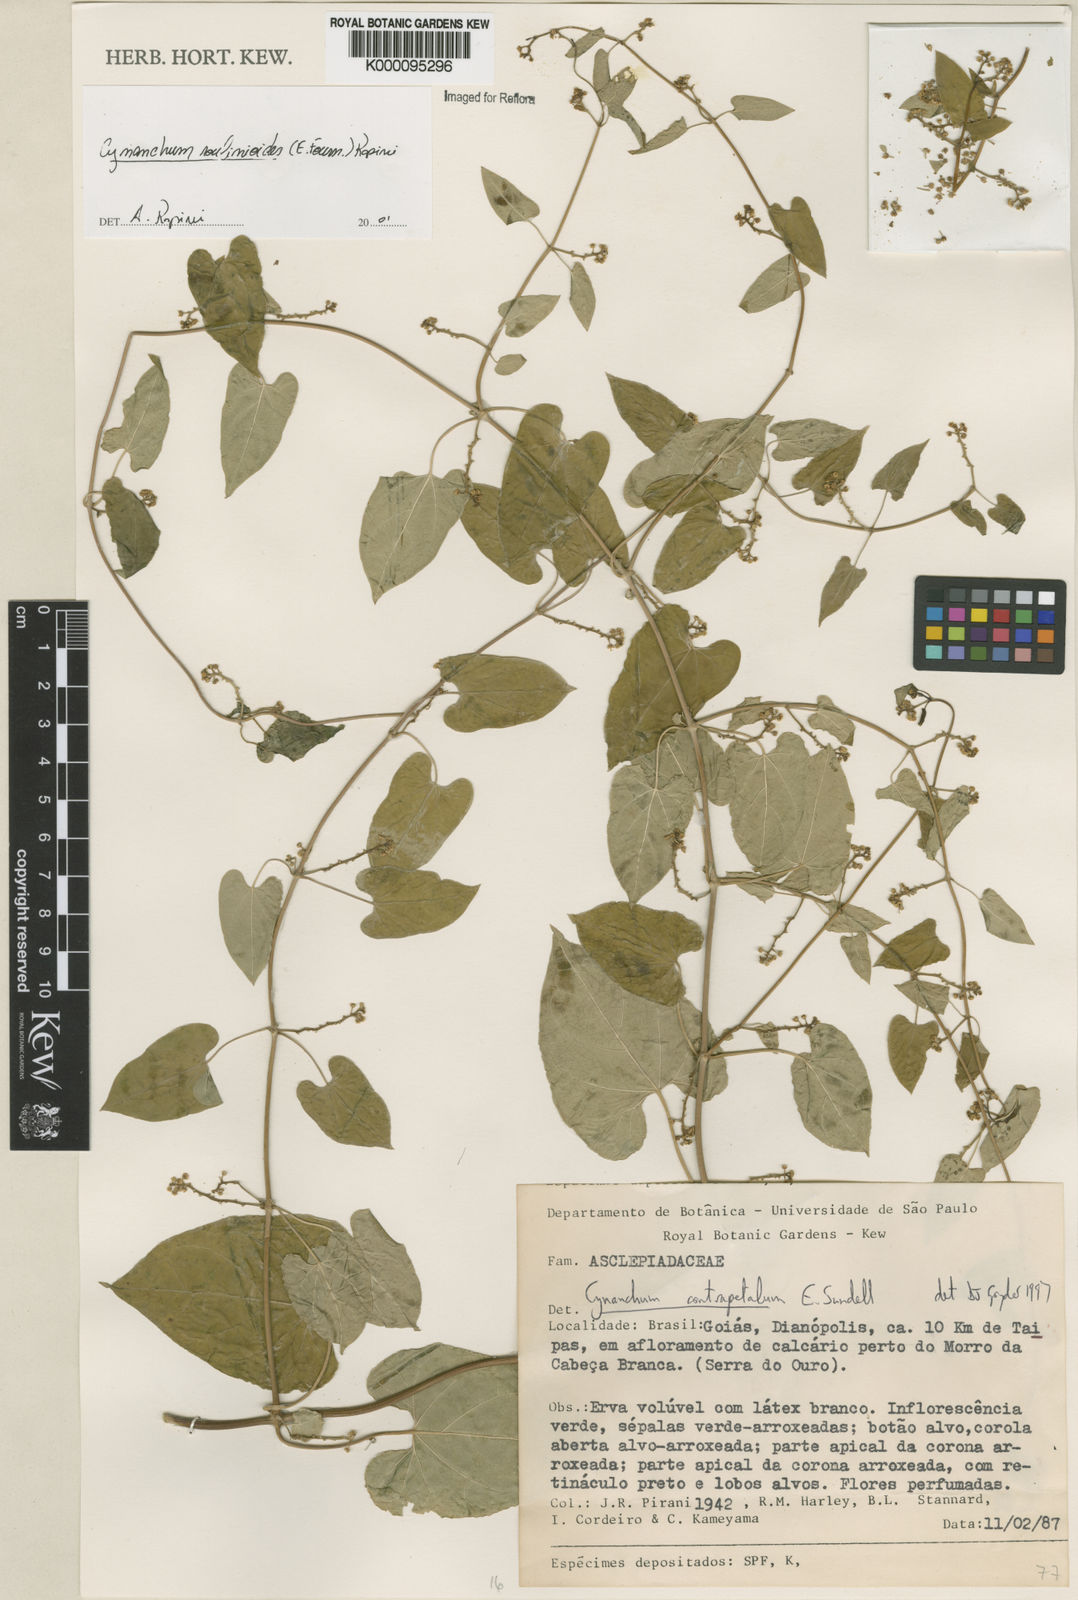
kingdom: Plantae
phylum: Tracheophyta
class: Magnoliopsida
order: Gentianales
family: Apocynaceae
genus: Cynanchum
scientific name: Cynanchum roulinioides
